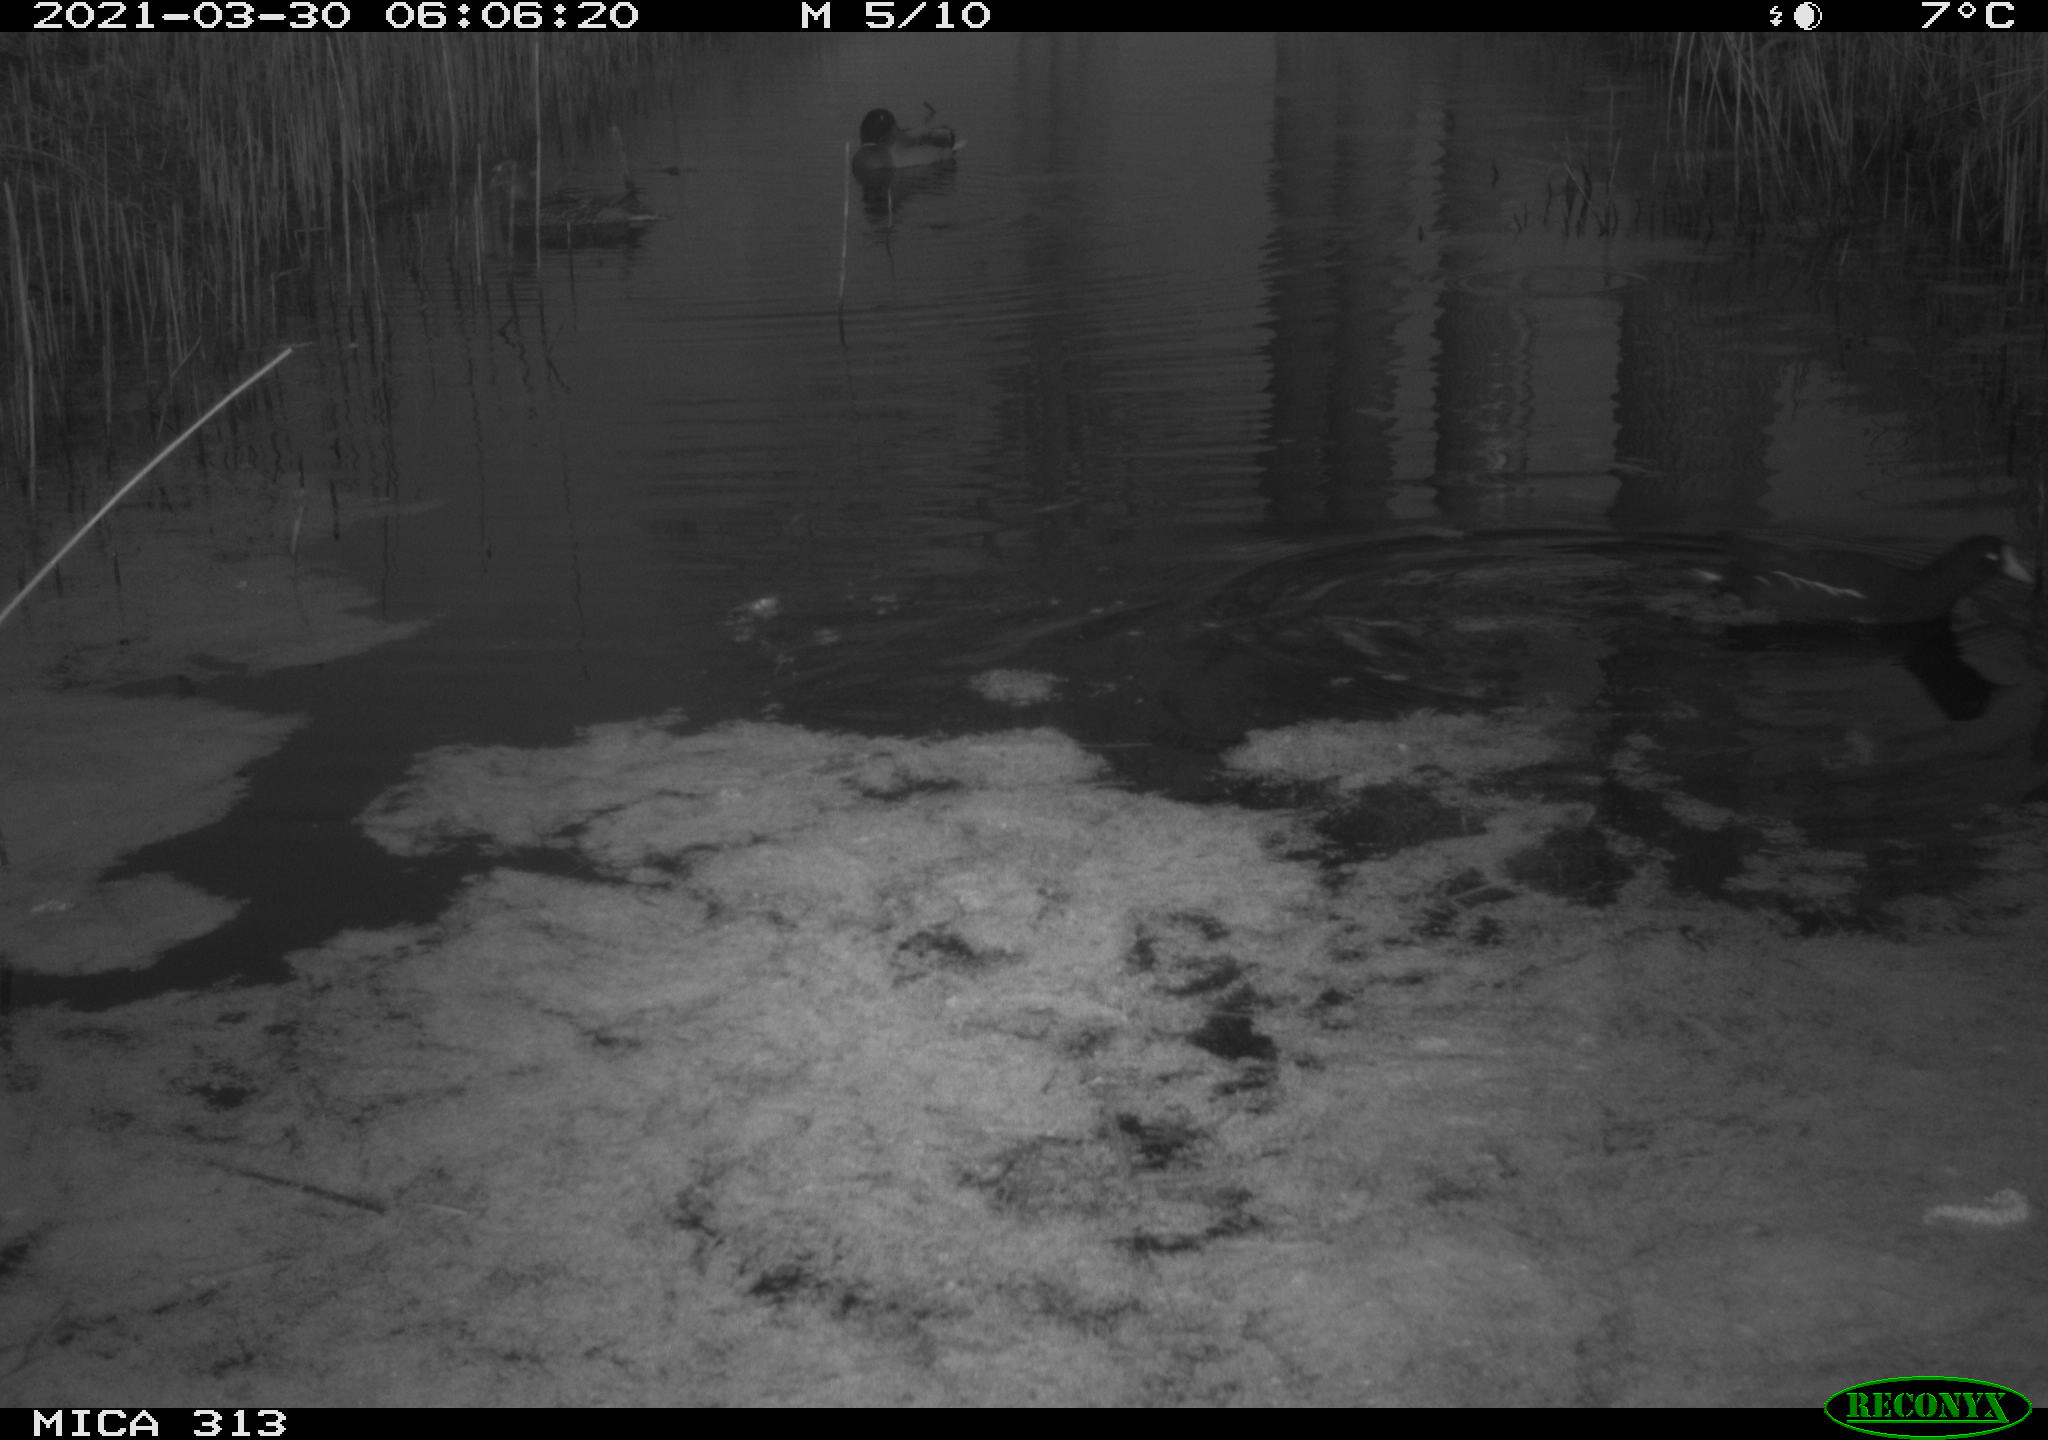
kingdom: Animalia
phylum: Chordata
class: Aves
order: Gruiformes
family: Rallidae
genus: Gallinula
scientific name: Gallinula chloropus
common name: Common moorhen
